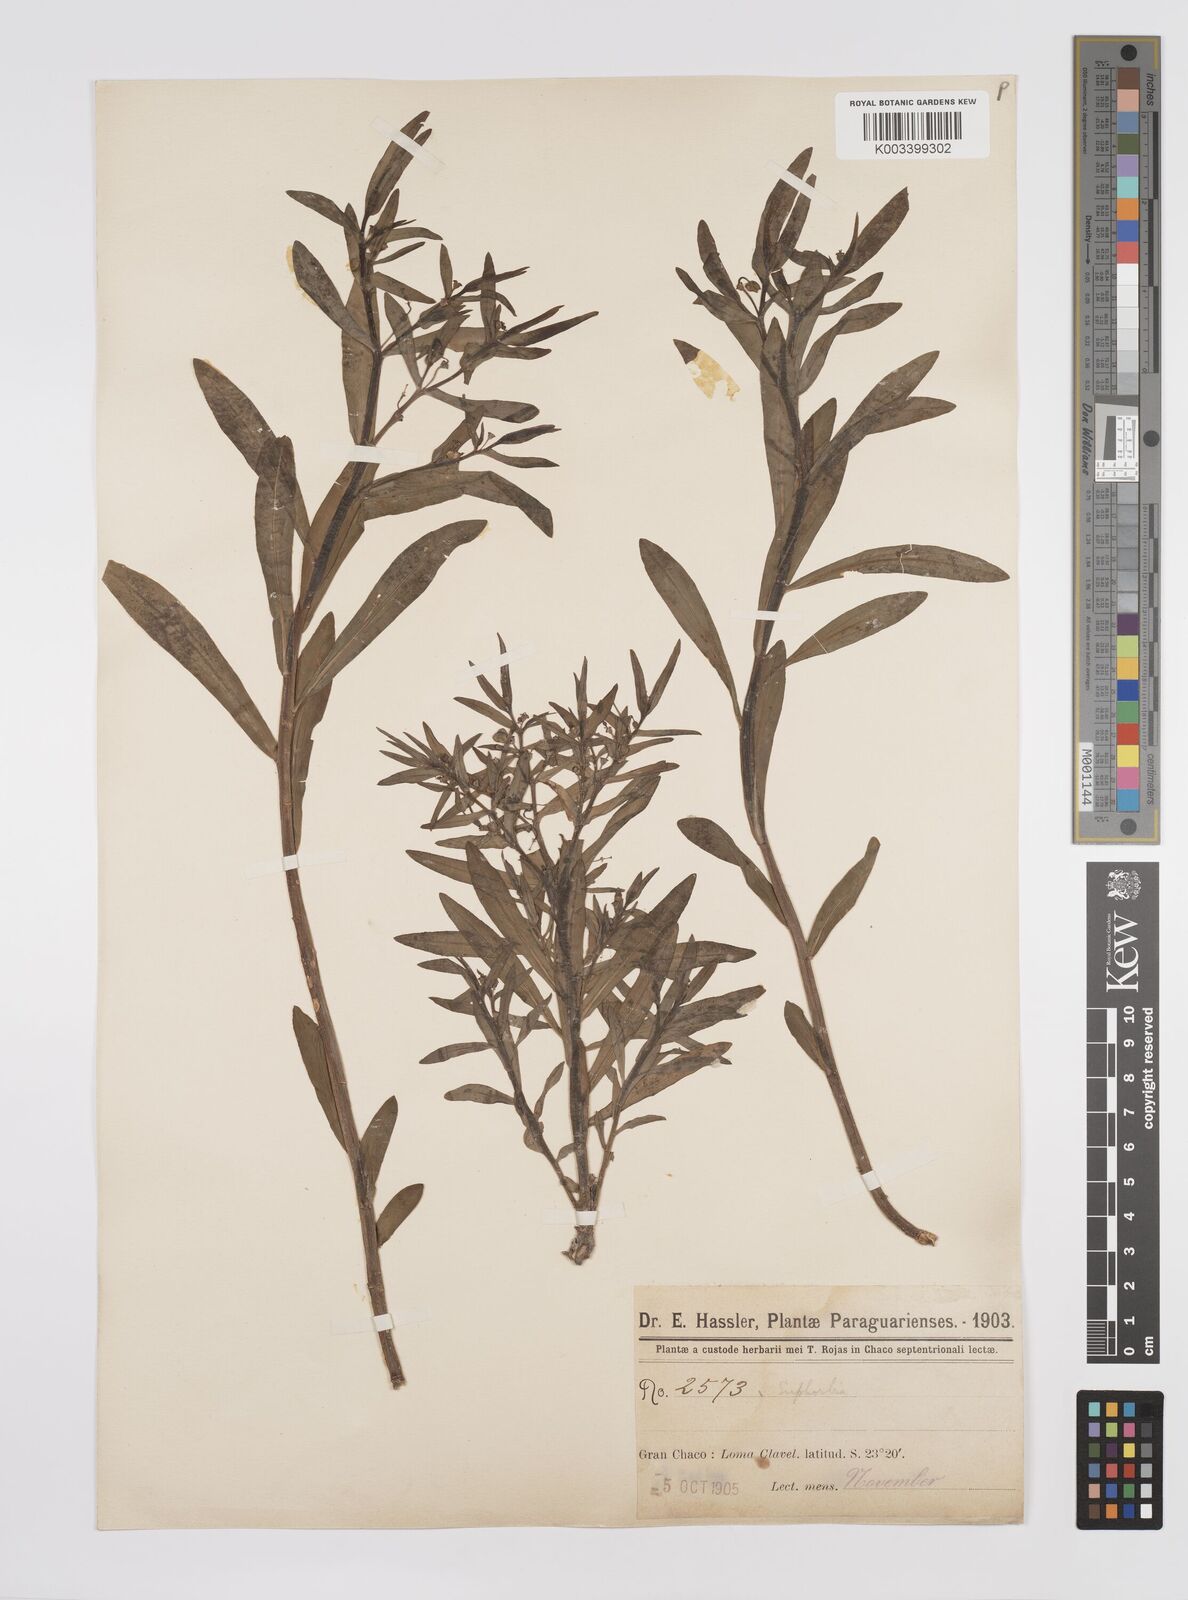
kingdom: Plantae
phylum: Tracheophyta
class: Magnoliopsida
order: Malpighiales
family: Euphorbiaceae
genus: Euphorbia
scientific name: Euphorbia
